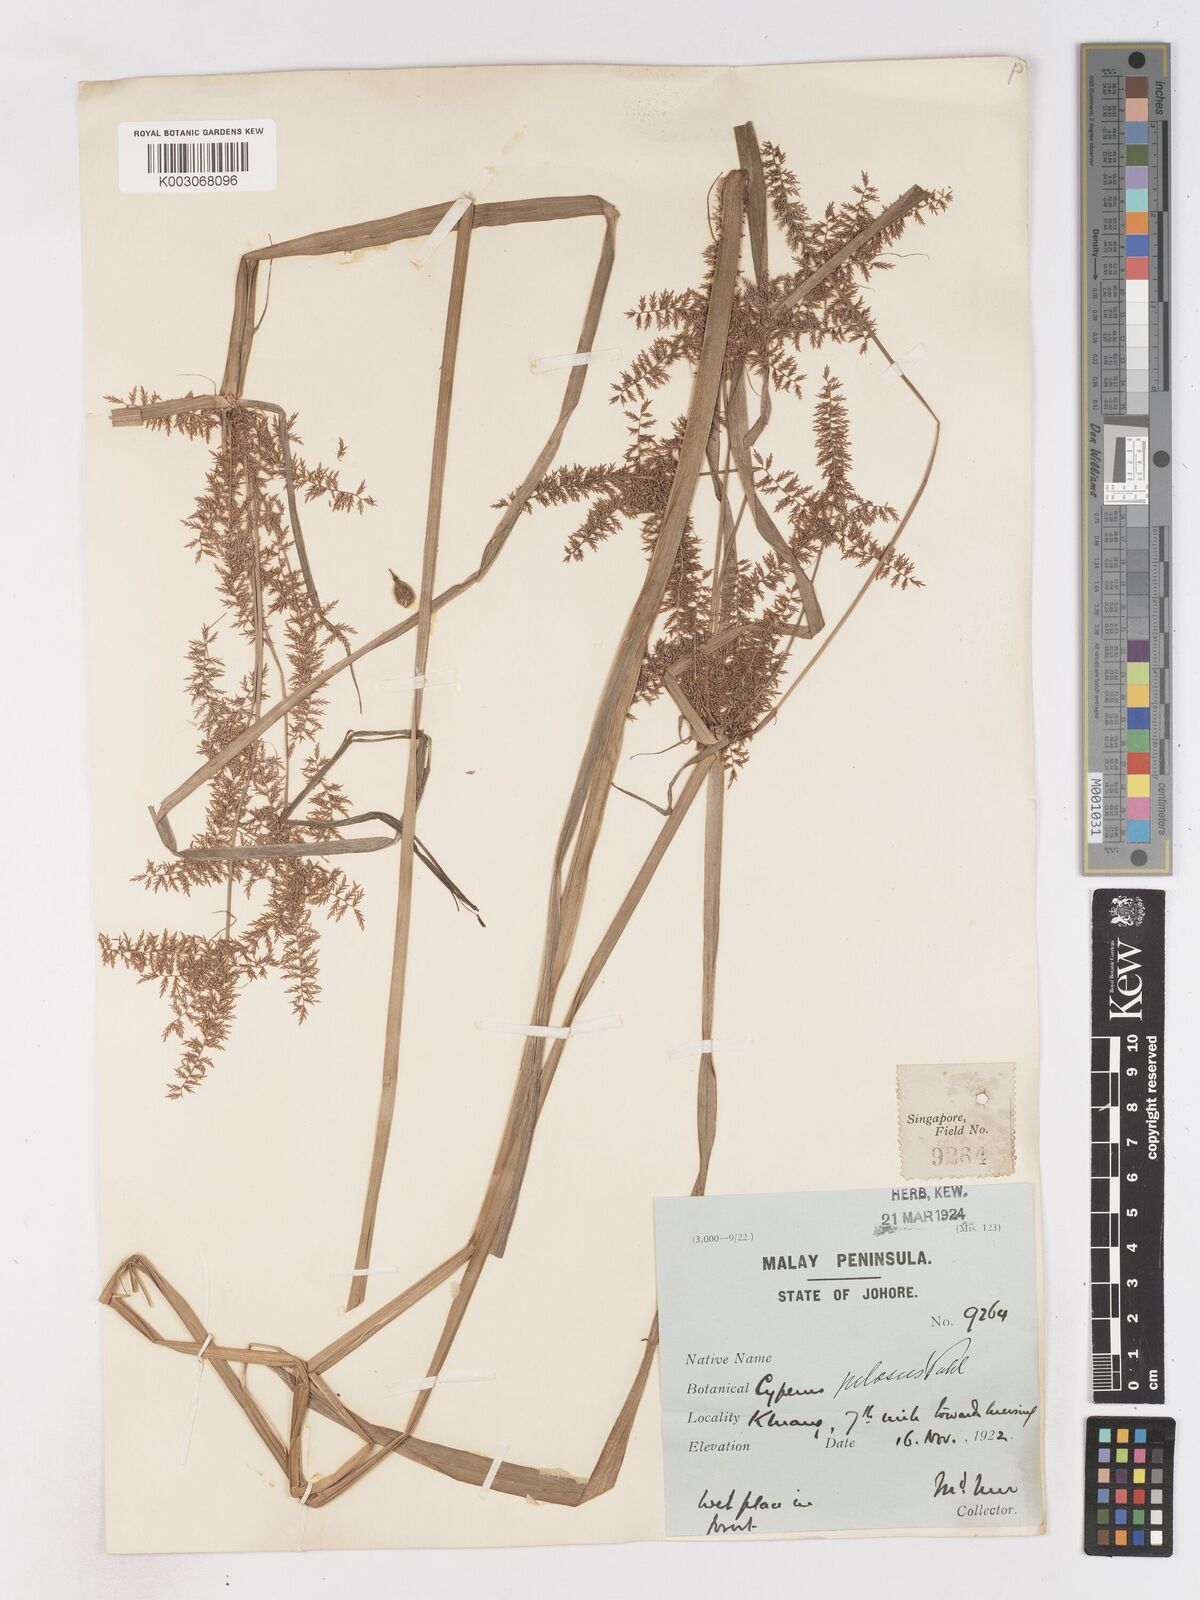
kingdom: Plantae
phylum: Tracheophyta
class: Liliopsida
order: Poales
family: Cyperaceae
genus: Cyperus
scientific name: Cyperus pilosus
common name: Fuzzy flatsedge
